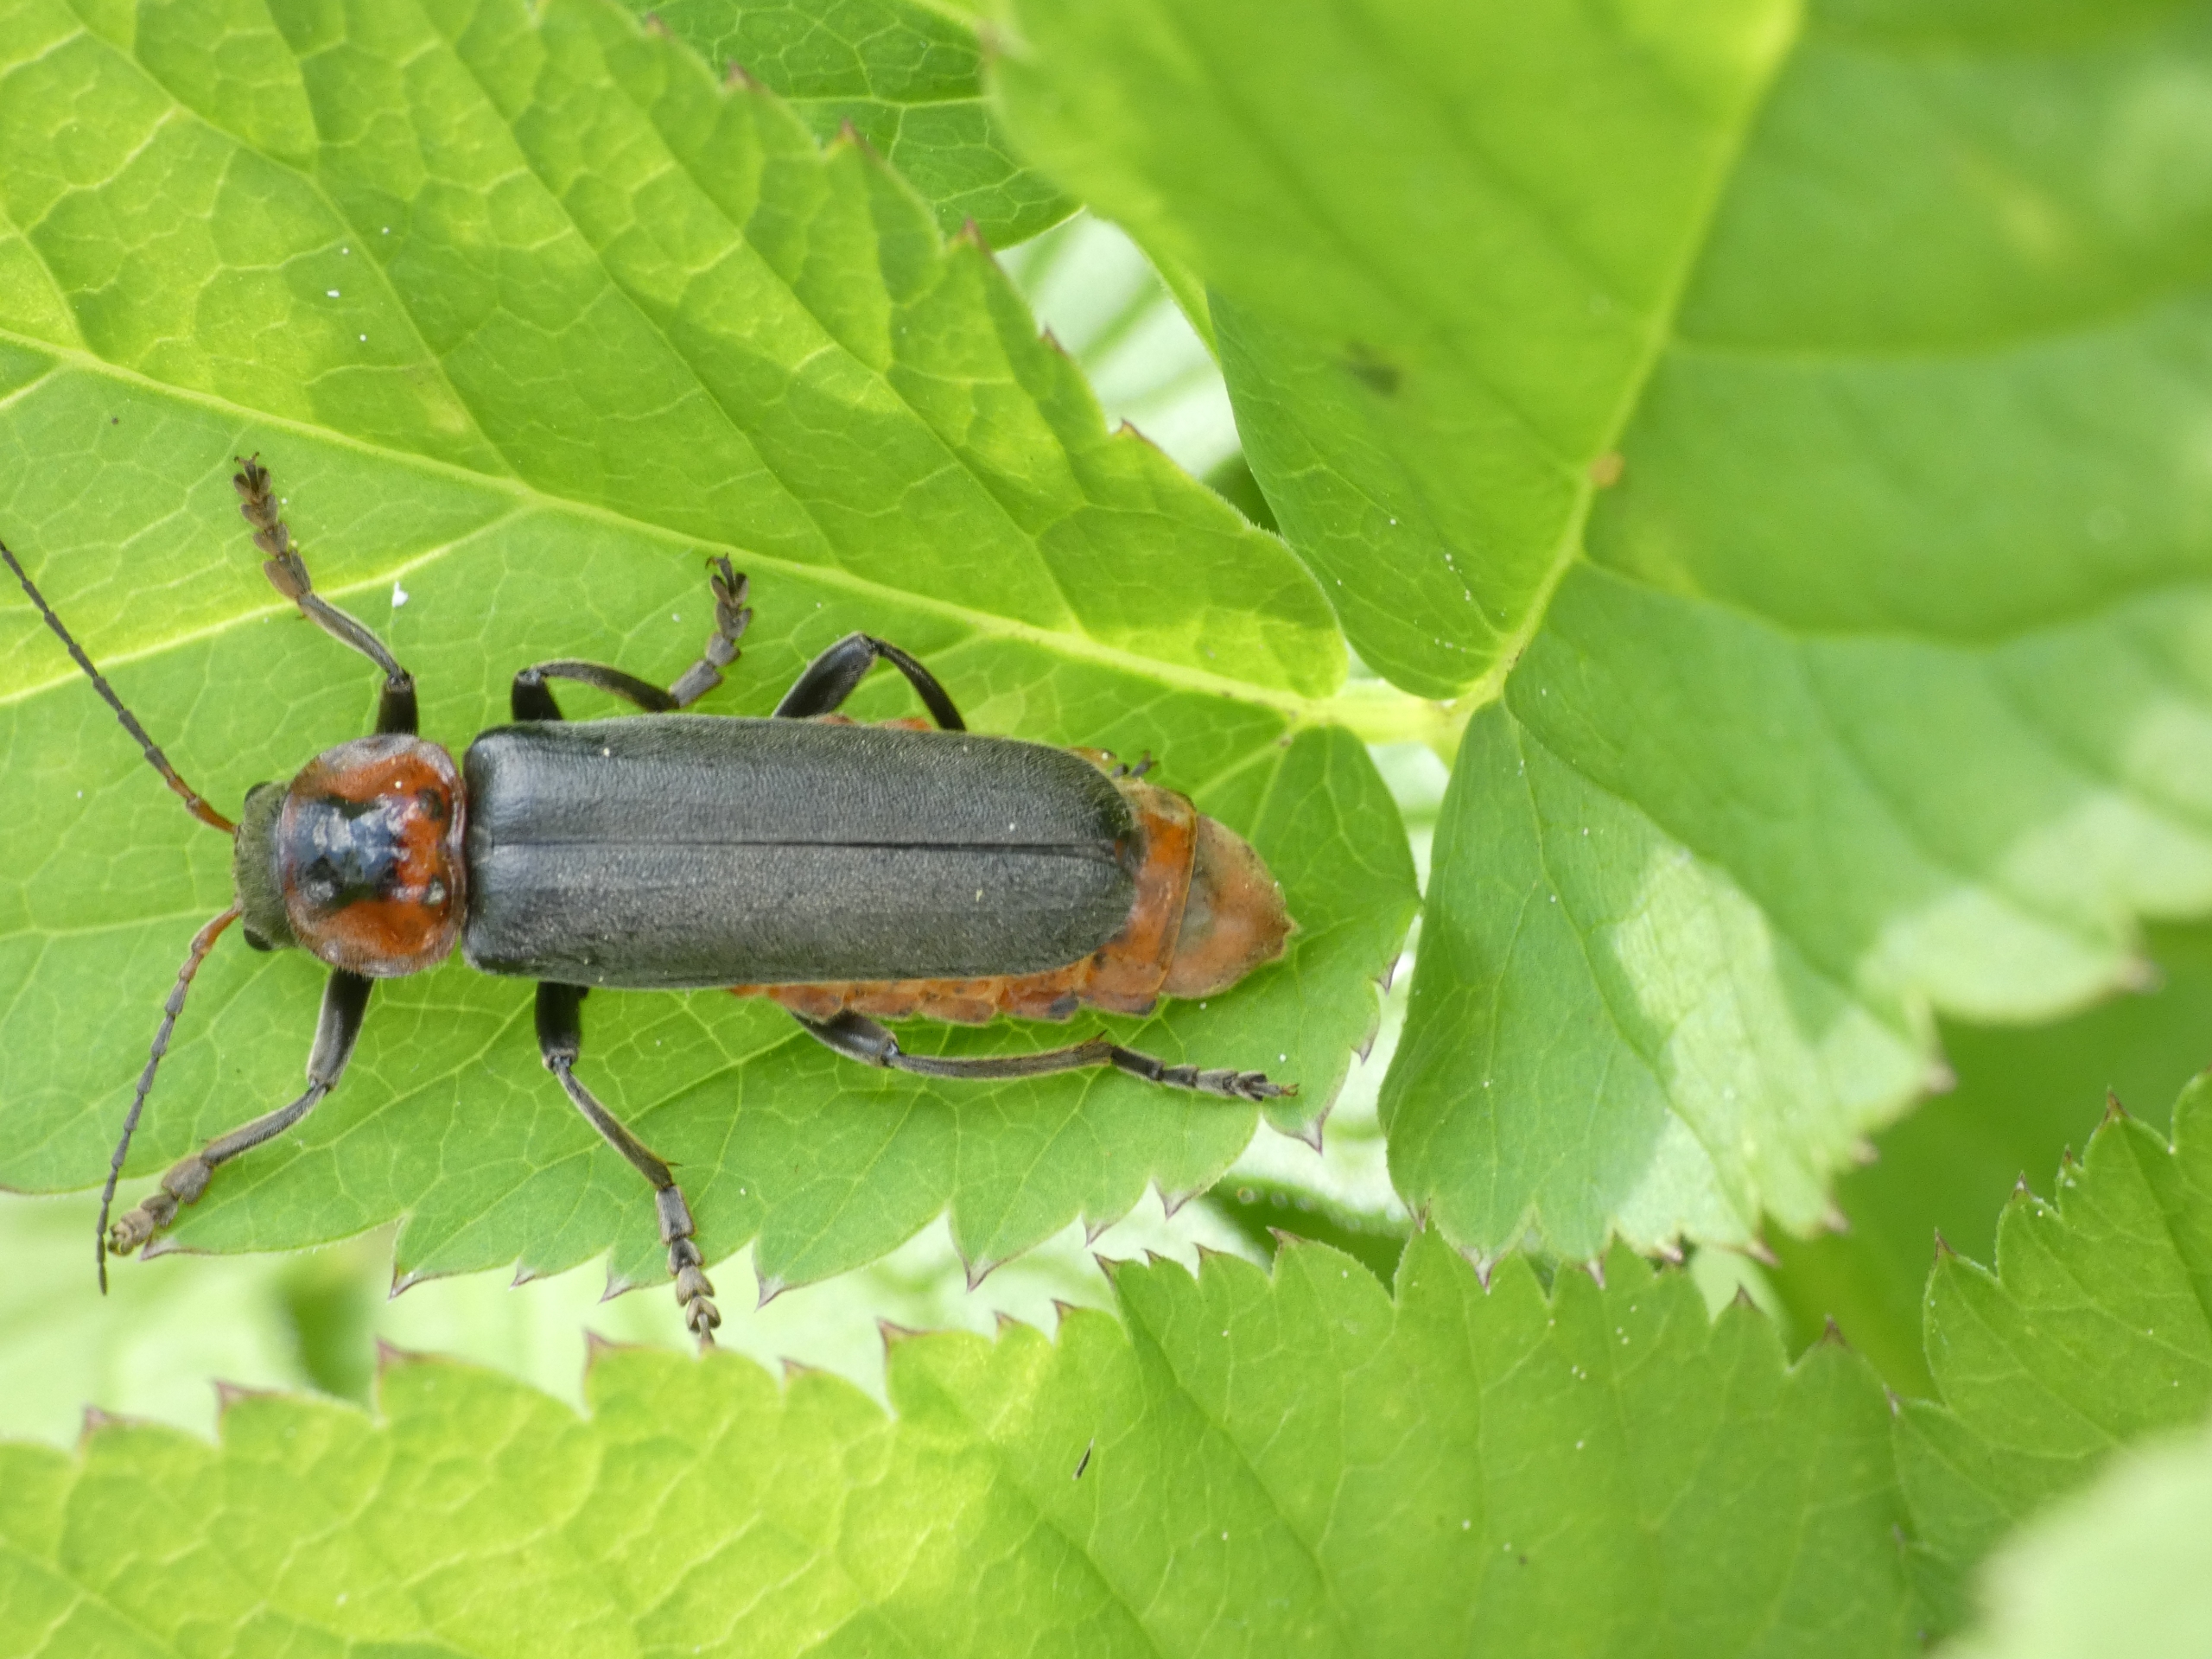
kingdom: Animalia
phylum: Arthropoda
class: Insecta
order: Coleoptera
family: Cantharidae
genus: Cantharis
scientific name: Cantharis fusca
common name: Stor blødvinge
